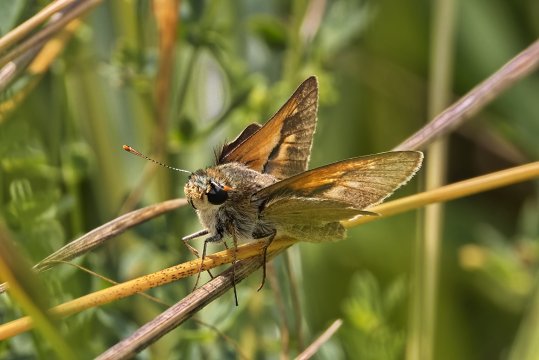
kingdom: Animalia
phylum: Arthropoda
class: Insecta
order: Lepidoptera
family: Hesperiidae
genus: Polites
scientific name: Polites
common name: Crossline Skipper
